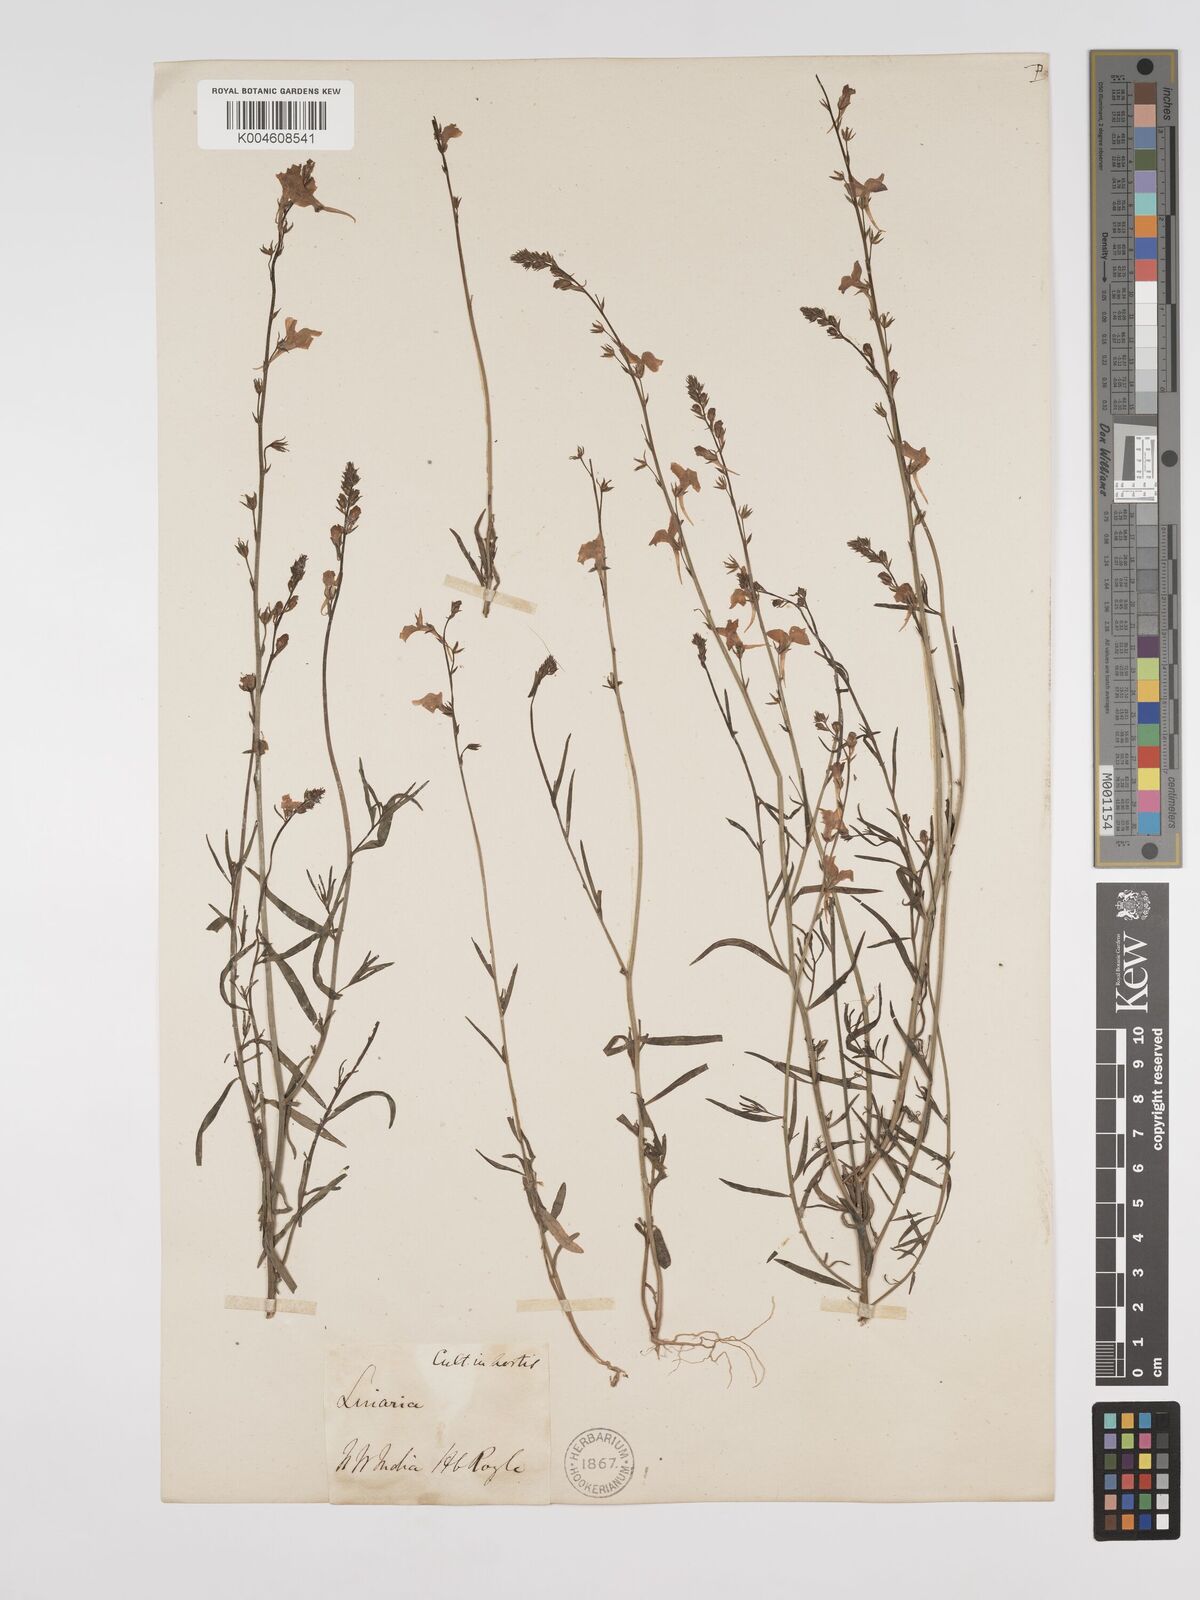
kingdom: Plantae
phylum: Tracheophyta
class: Magnoliopsida
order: Lamiales
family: Plantaginaceae
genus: Kickxia
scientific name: Kickxia
